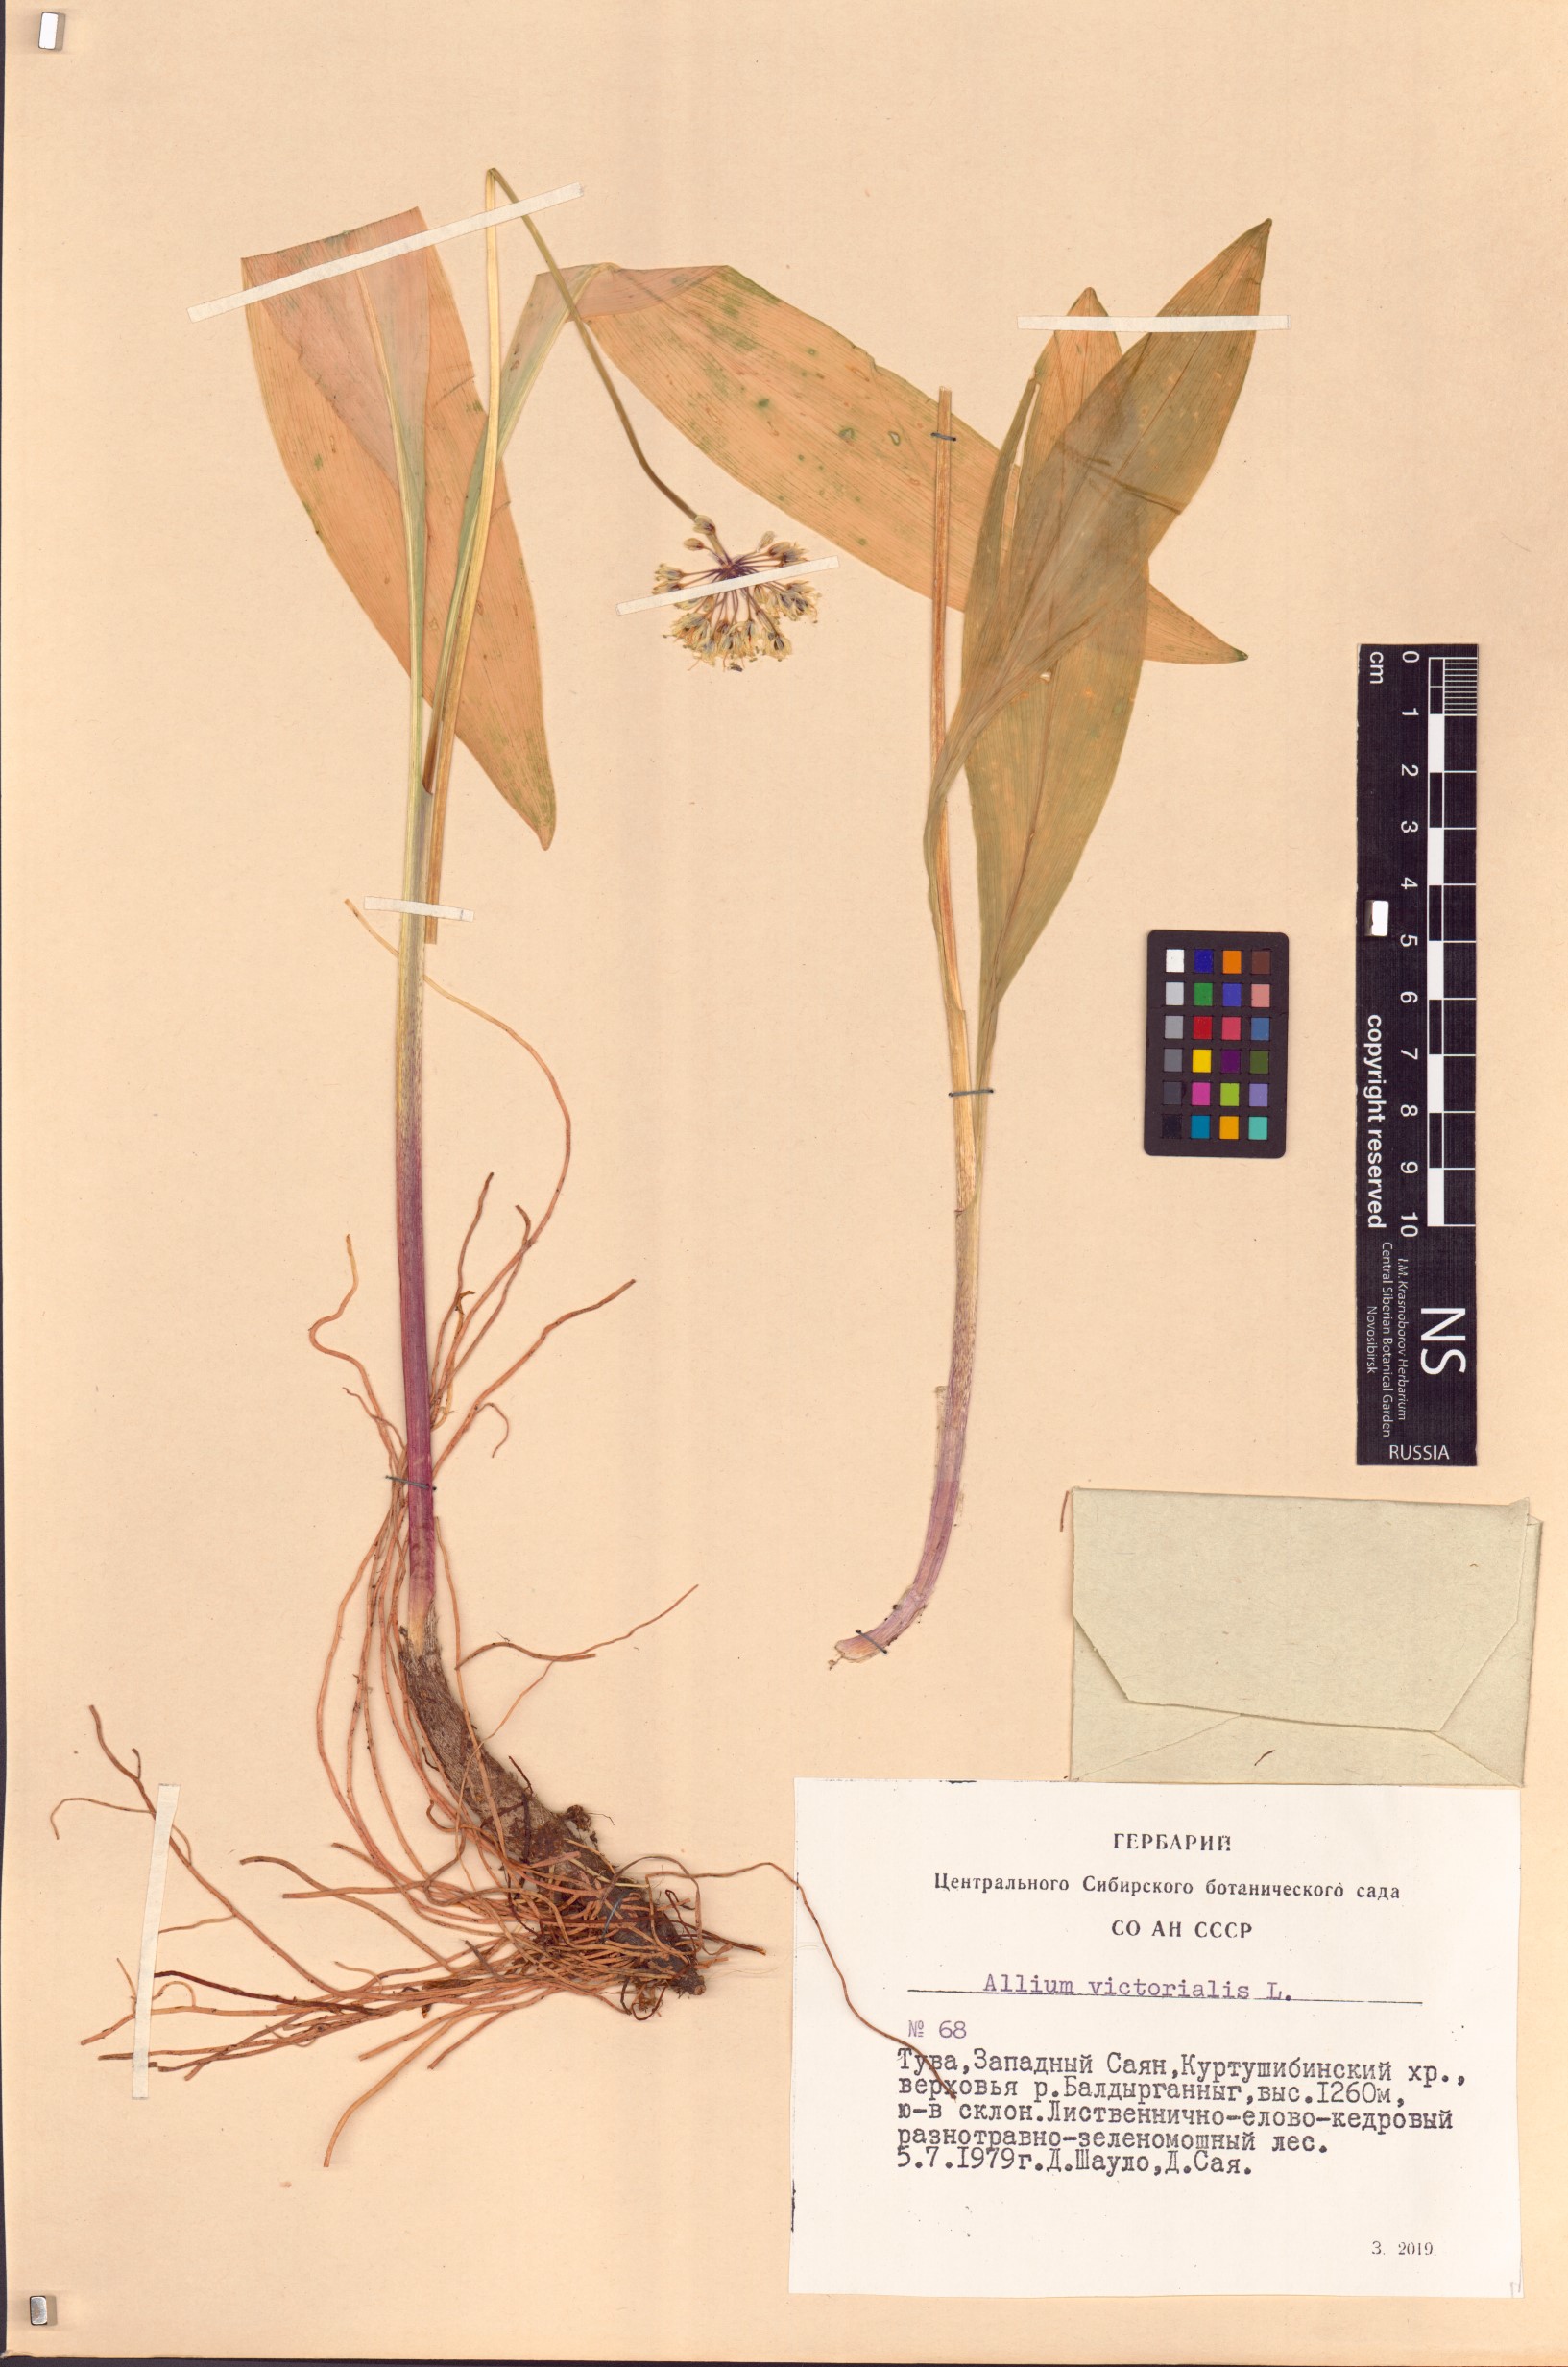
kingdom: Plantae
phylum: Tracheophyta
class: Liliopsida
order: Asparagales
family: Amaryllidaceae
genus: Allium
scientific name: Allium victorialis
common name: Alpine leek
